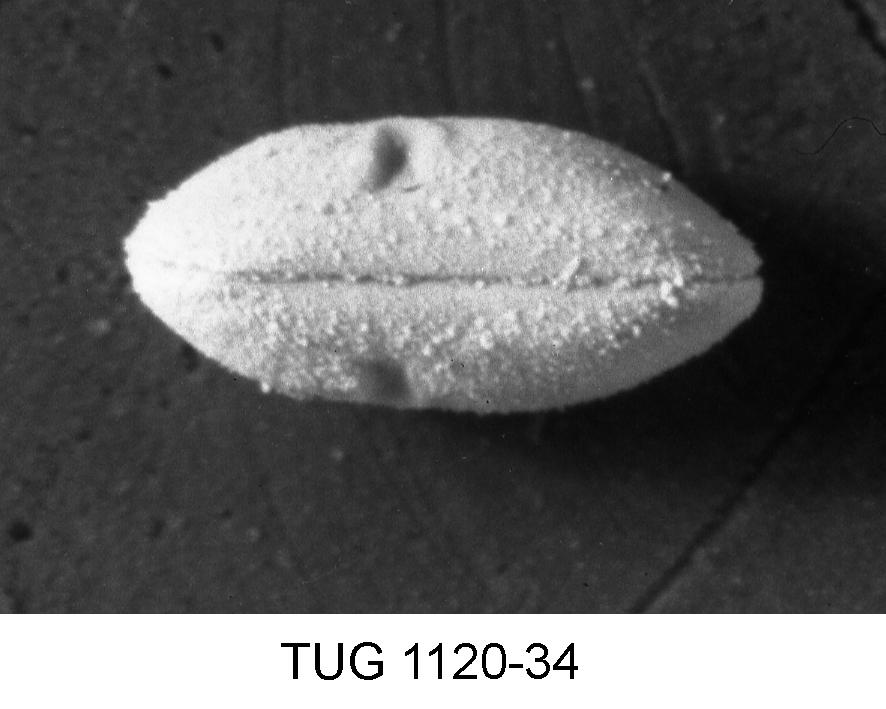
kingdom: Animalia
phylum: Arthropoda
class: Ostracoda
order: Palaeocopida
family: Tvaerenellidae
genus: Euprimites
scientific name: Euprimites
